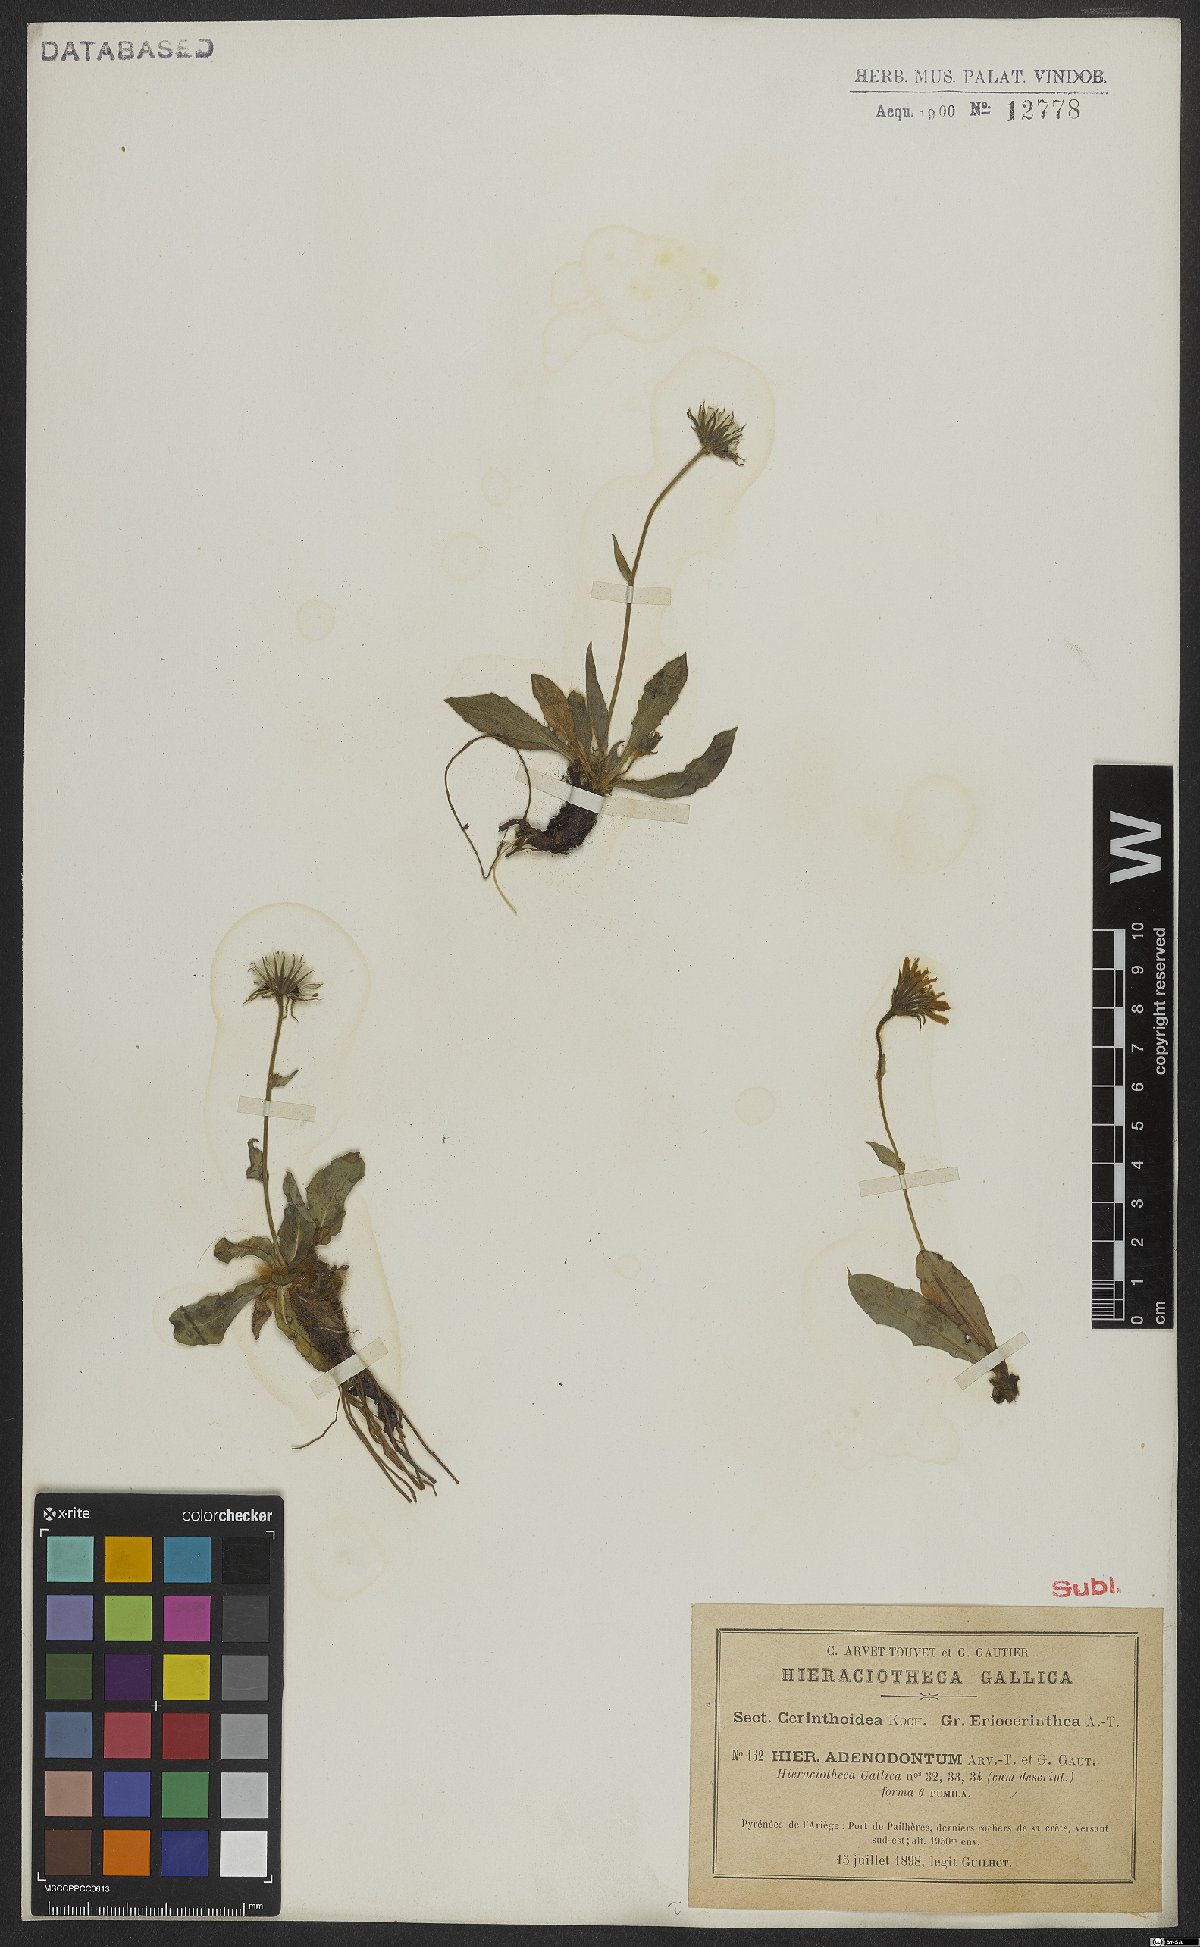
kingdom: Plantae
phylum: Tracheophyta
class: Magnoliopsida
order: Asterales
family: Asteraceae
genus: Hieracium
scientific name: Hieracium adenodontum
